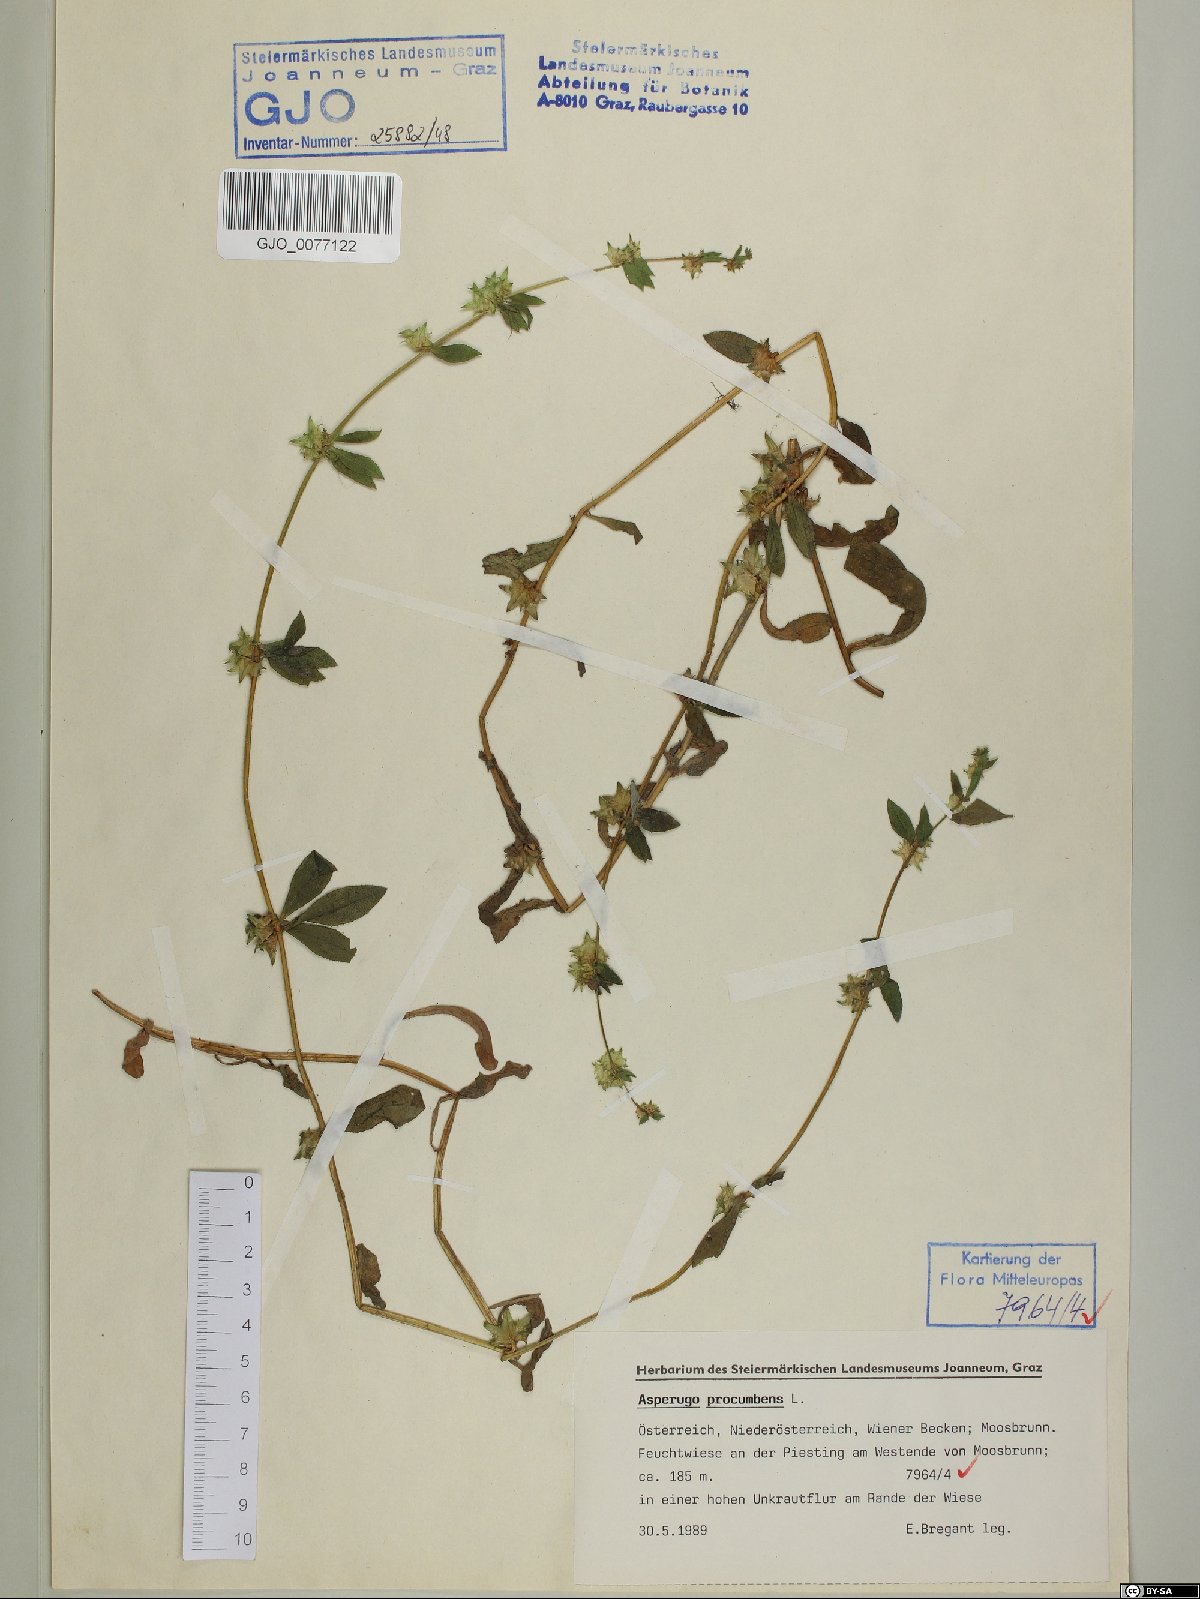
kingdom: Plantae
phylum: Tracheophyta
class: Magnoliopsida
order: Asterales
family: Asteraceae
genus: Artemisia
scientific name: Artemisia mutellina
